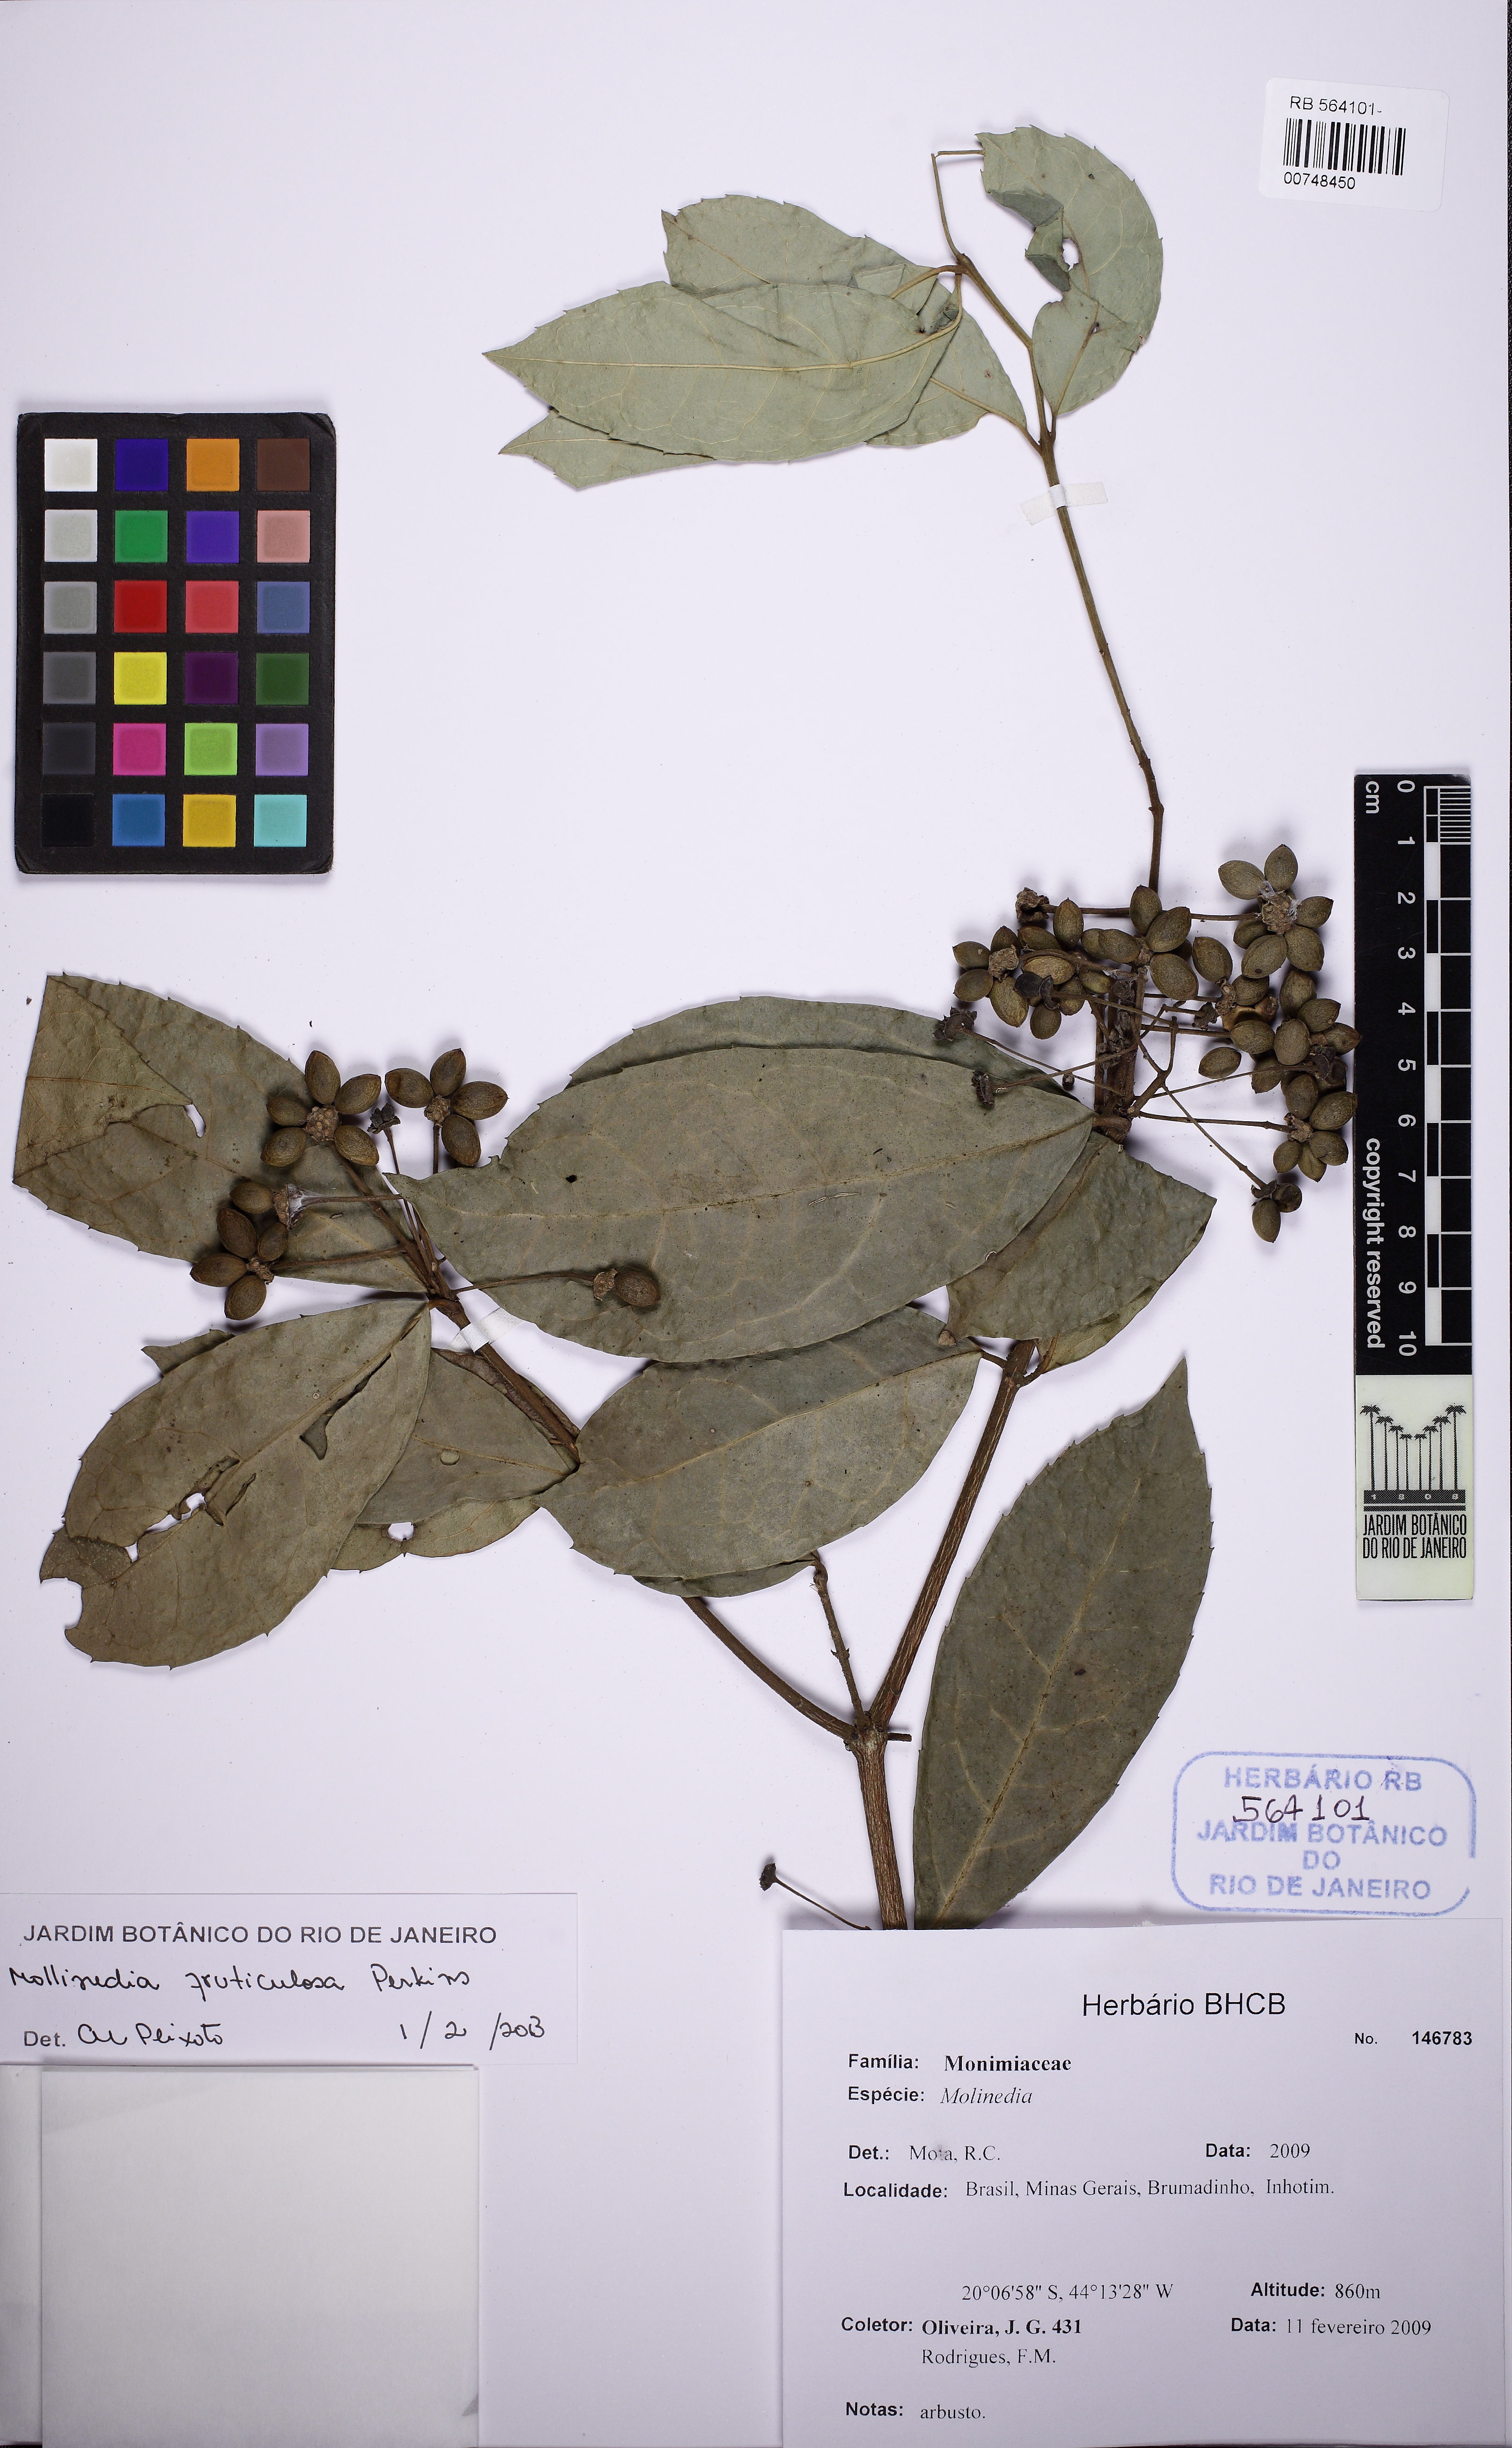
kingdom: Plantae
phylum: Tracheophyta
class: Magnoliopsida
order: Laurales
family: Monimiaceae
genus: Mollinedia
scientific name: Mollinedia ovata
